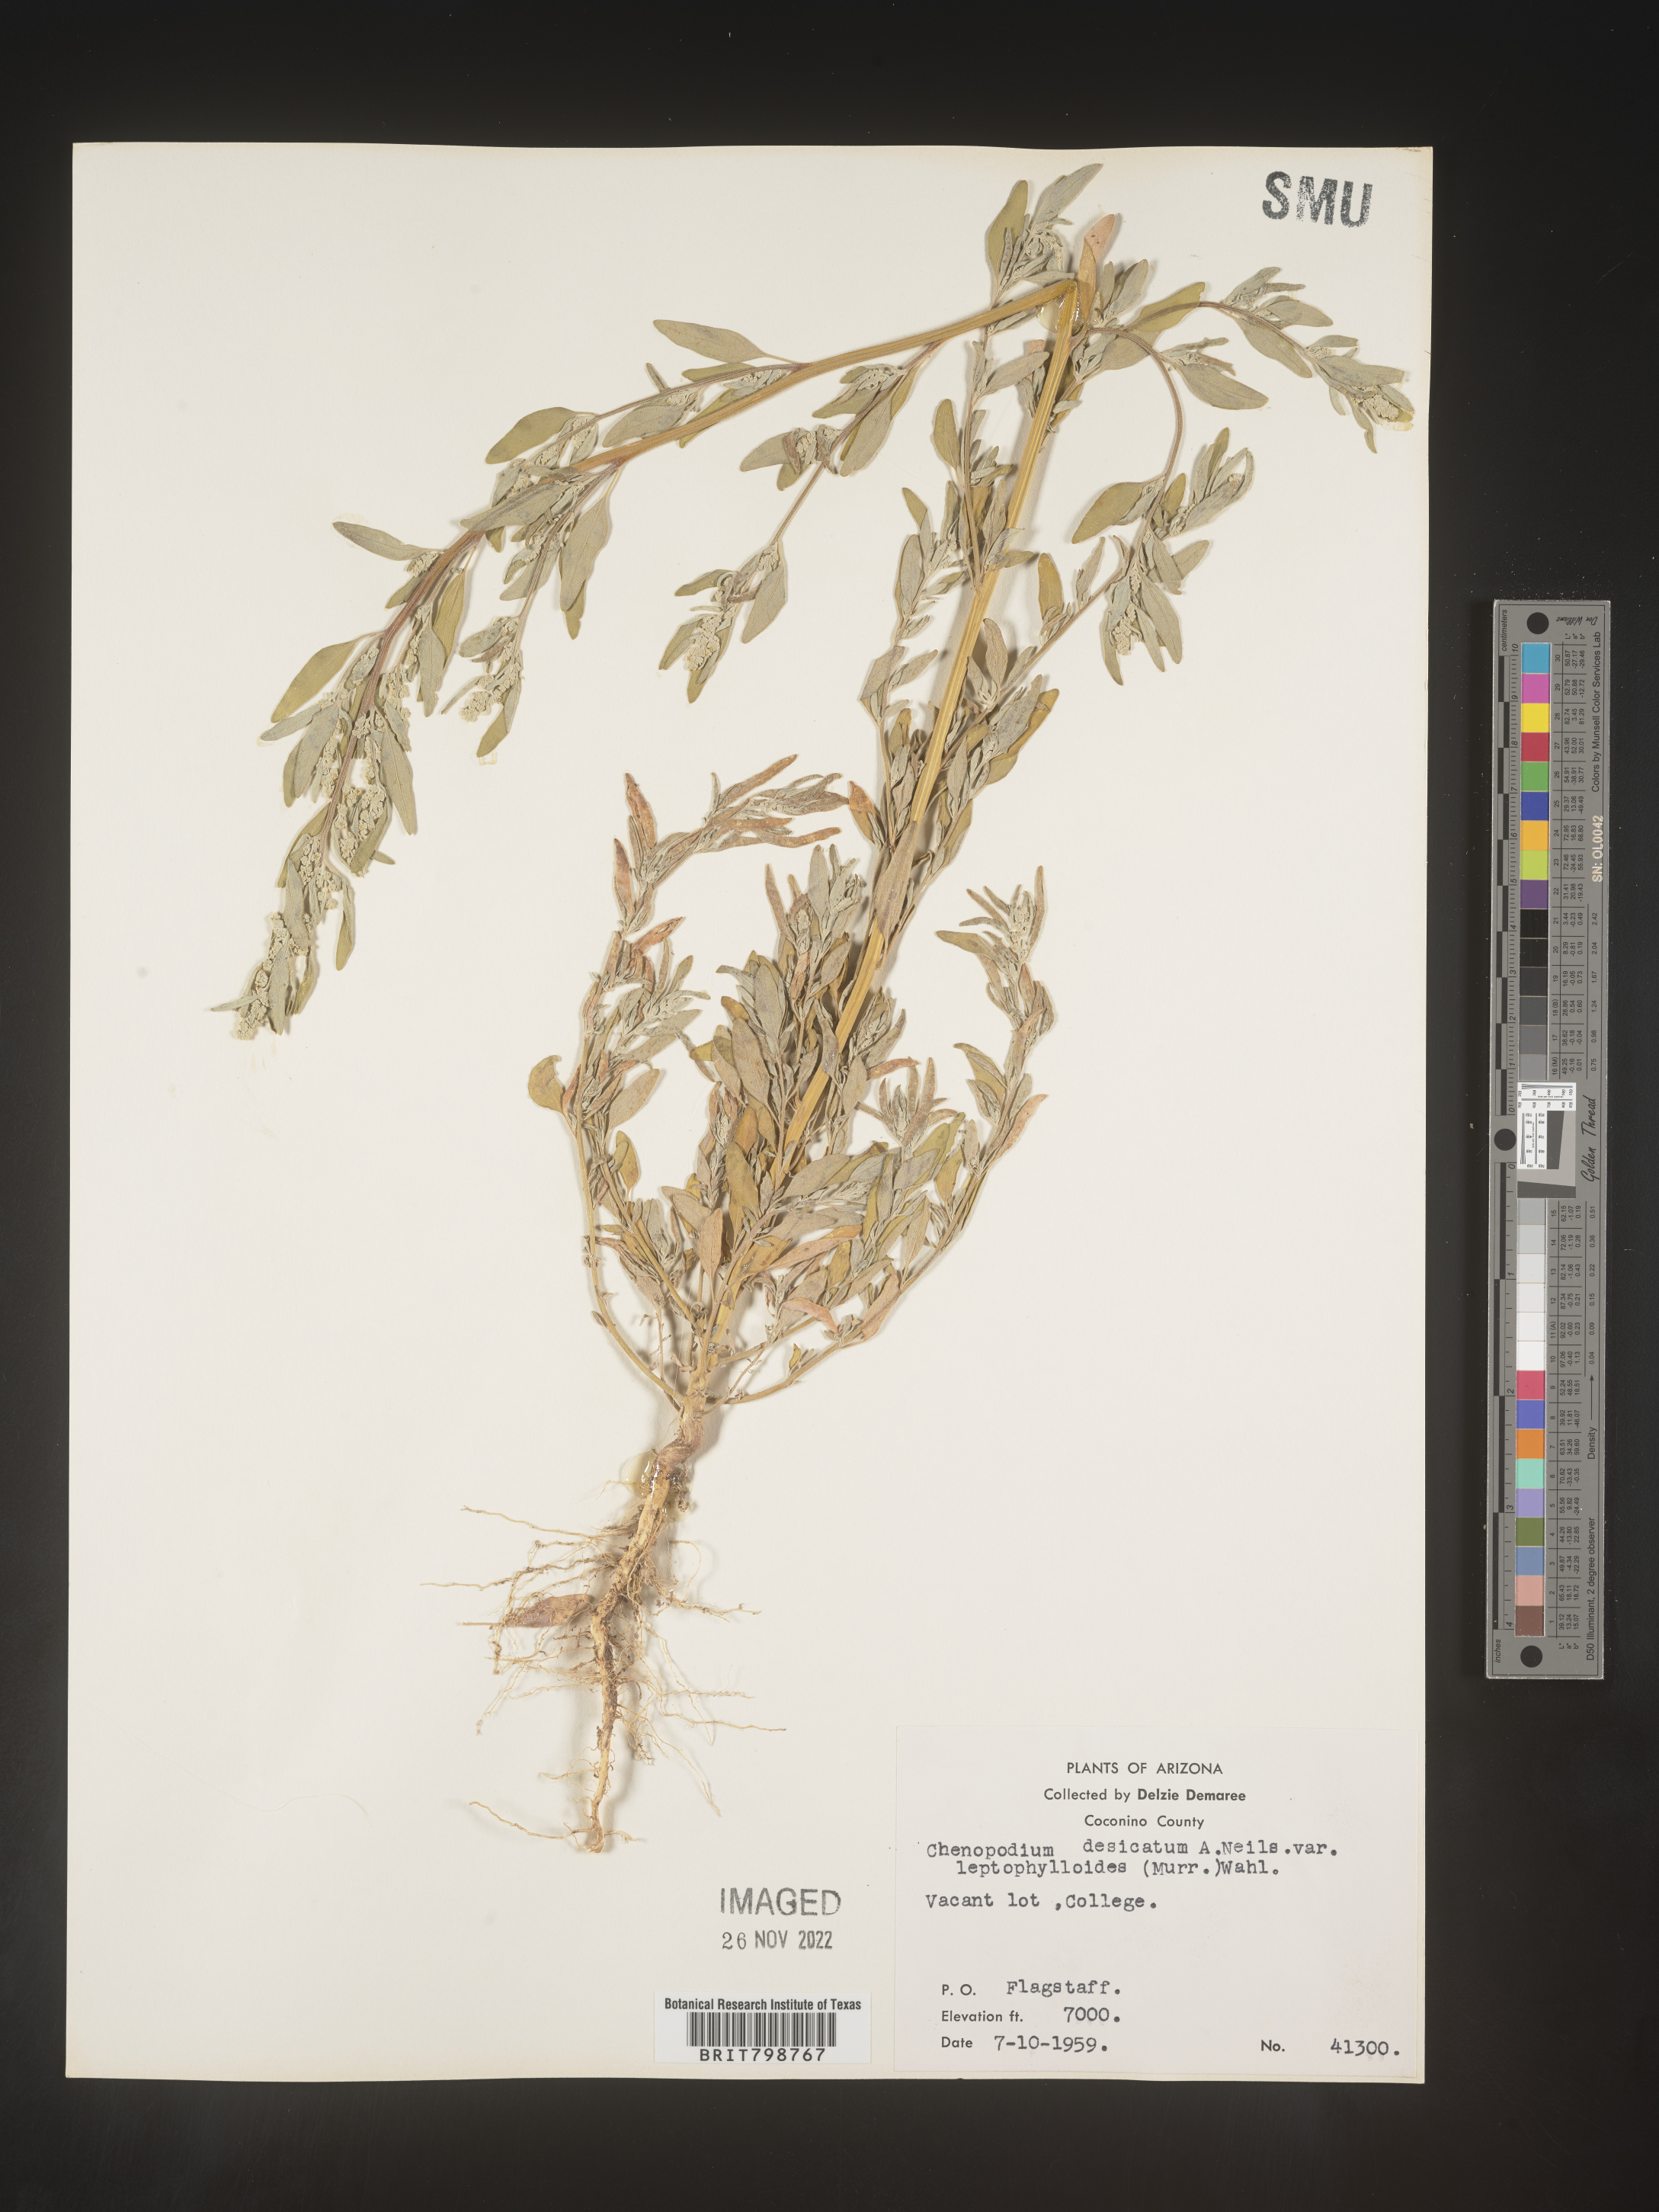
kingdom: Plantae
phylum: Tracheophyta
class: Magnoliopsida
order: Caryophyllales
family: Amaranthaceae
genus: Chenopodium
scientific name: Chenopodium desiccatum
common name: Slimleaf goosefoot
